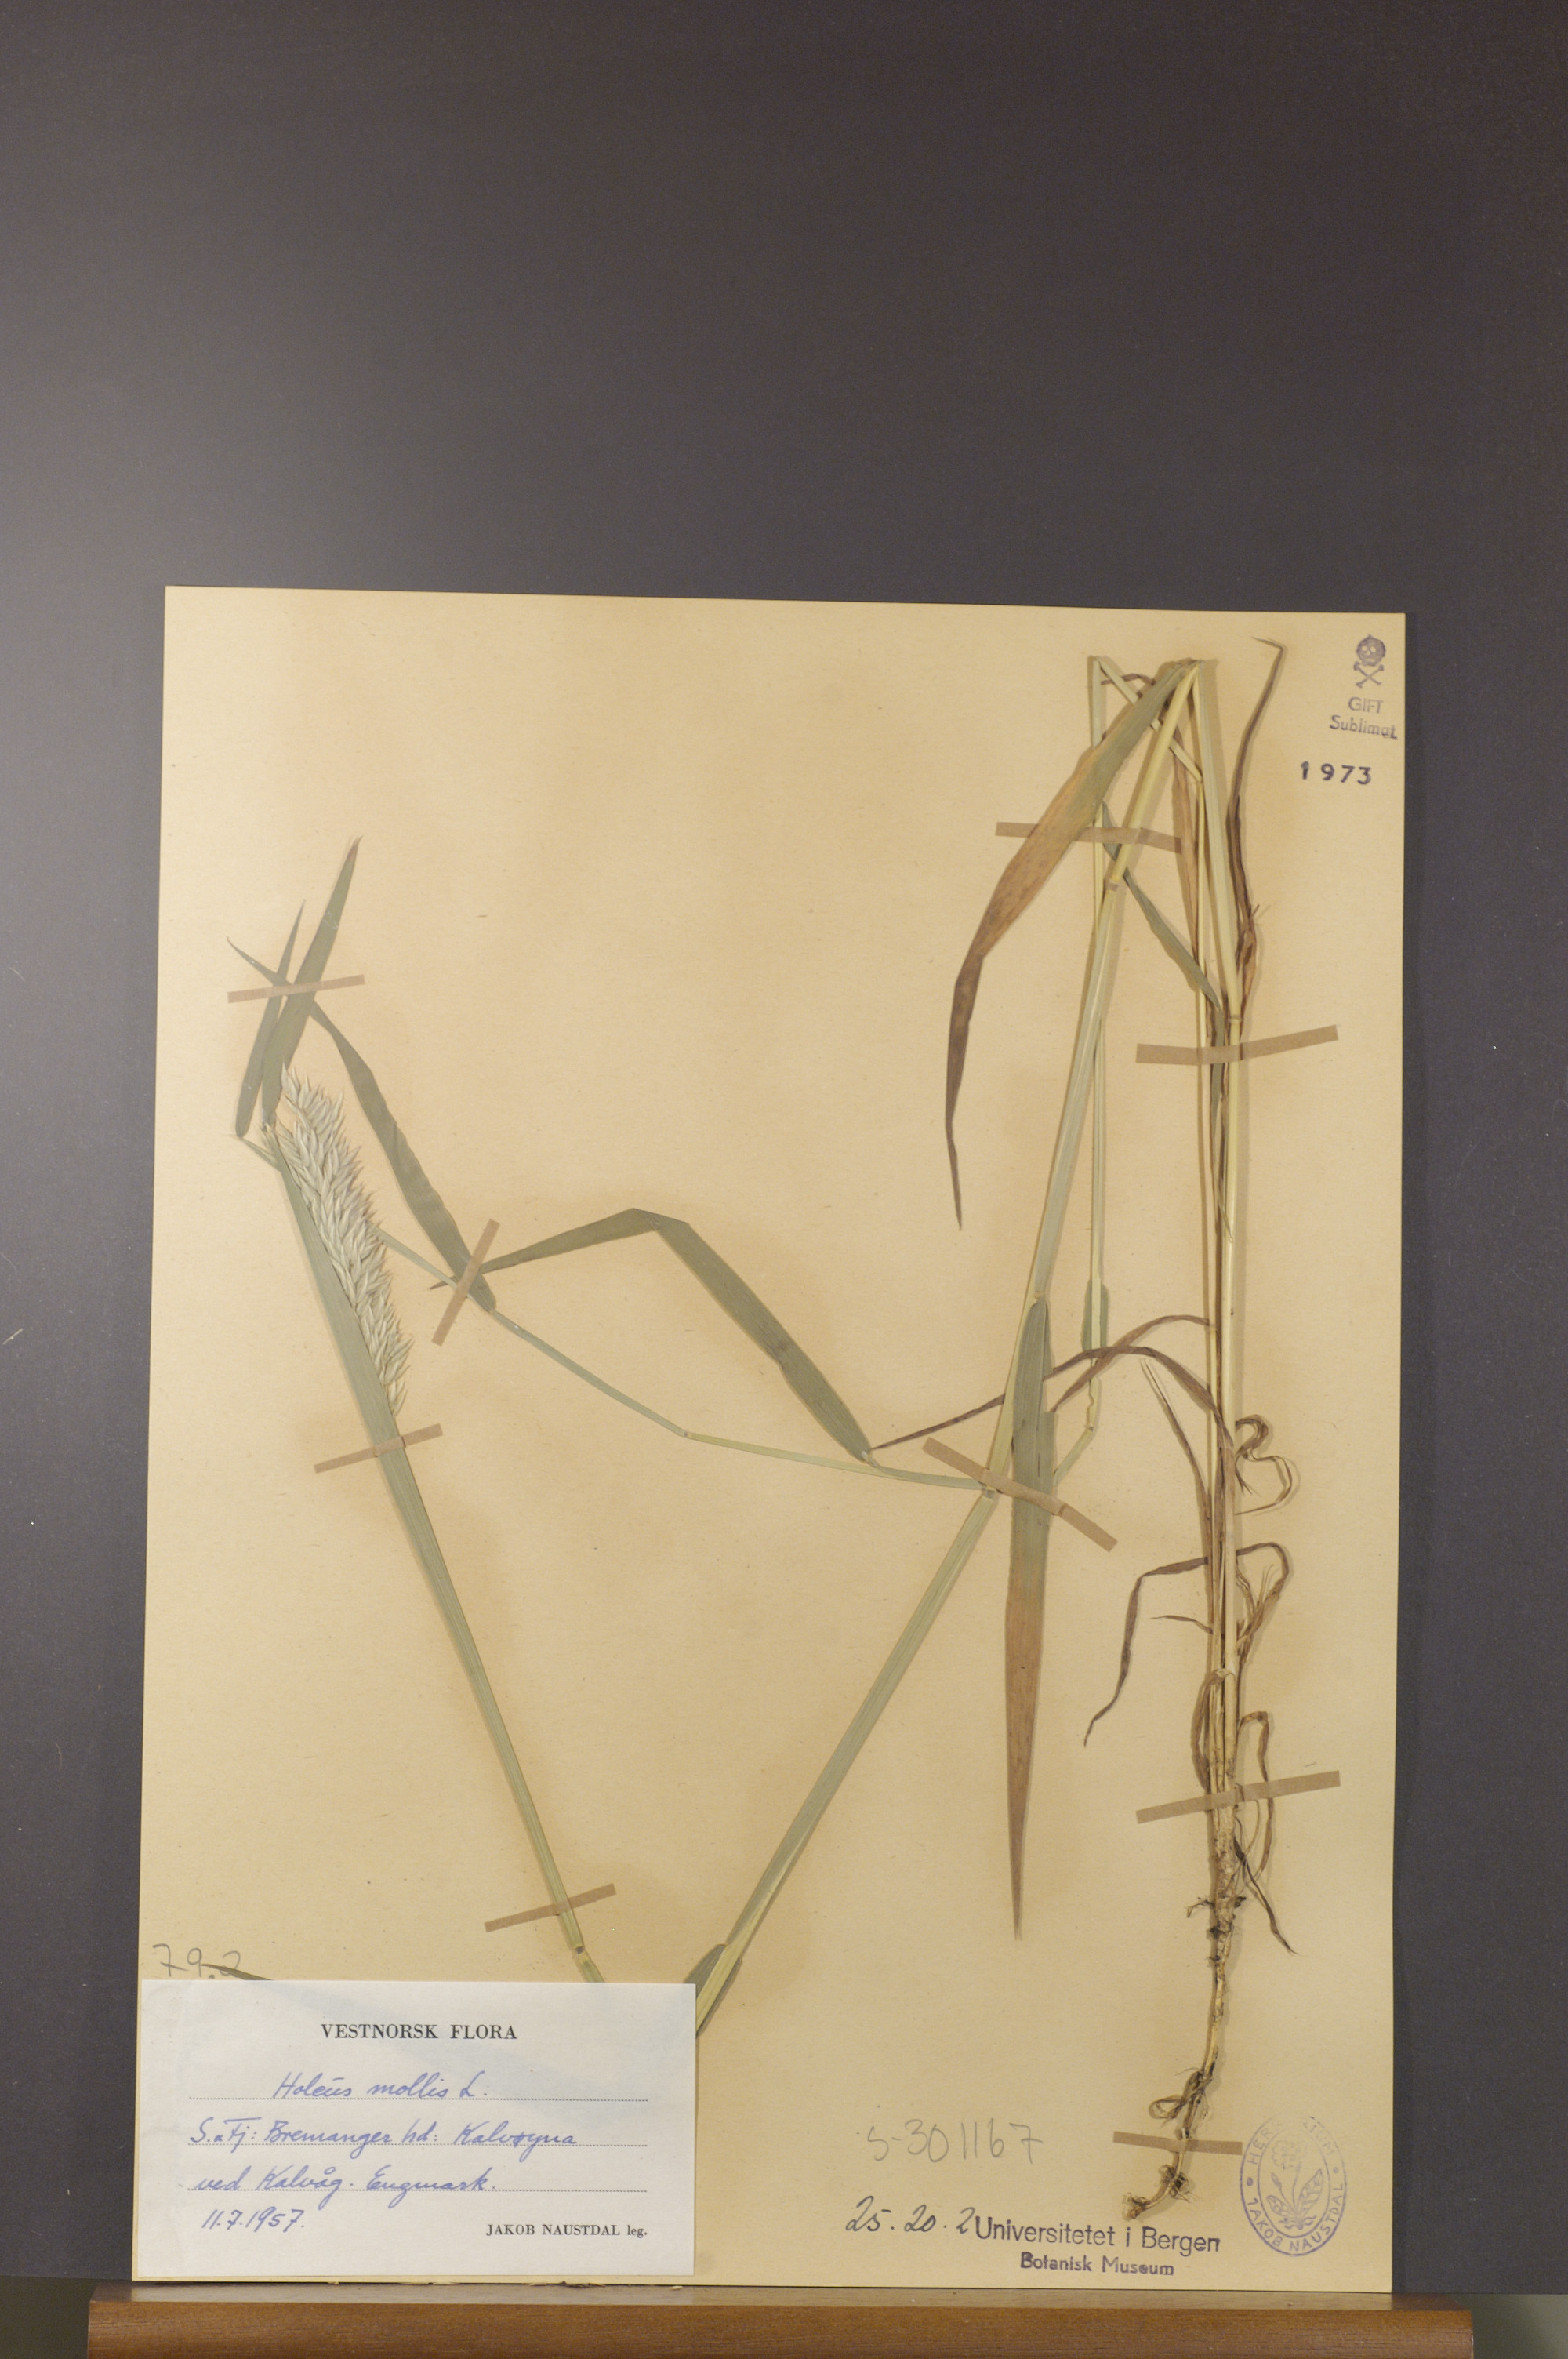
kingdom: Plantae
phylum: Tracheophyta
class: Liliopsida
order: Poales
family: Poaceae
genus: Holcus
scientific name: Holcus mollis
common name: Creeping velvetgrass
